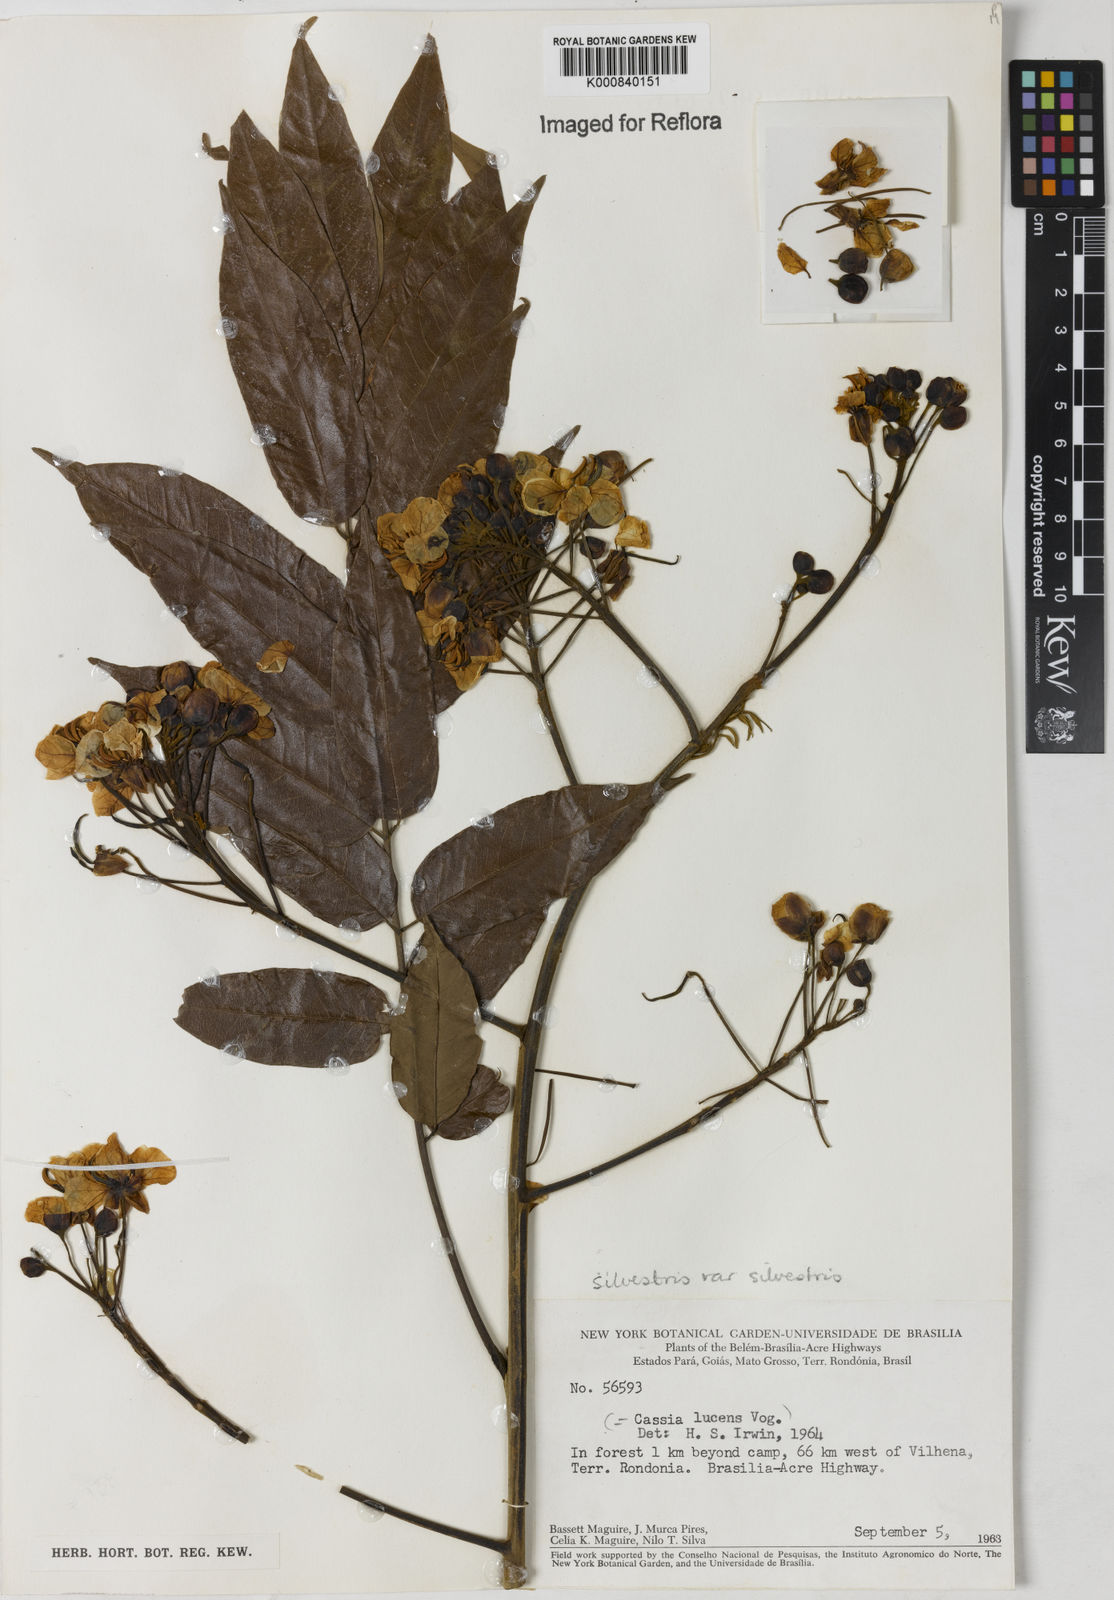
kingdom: Plantae
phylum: Tracheophyta
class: Magnoliopsida
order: Fabales
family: Fabaceae
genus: Senna
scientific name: Senna silvestris
